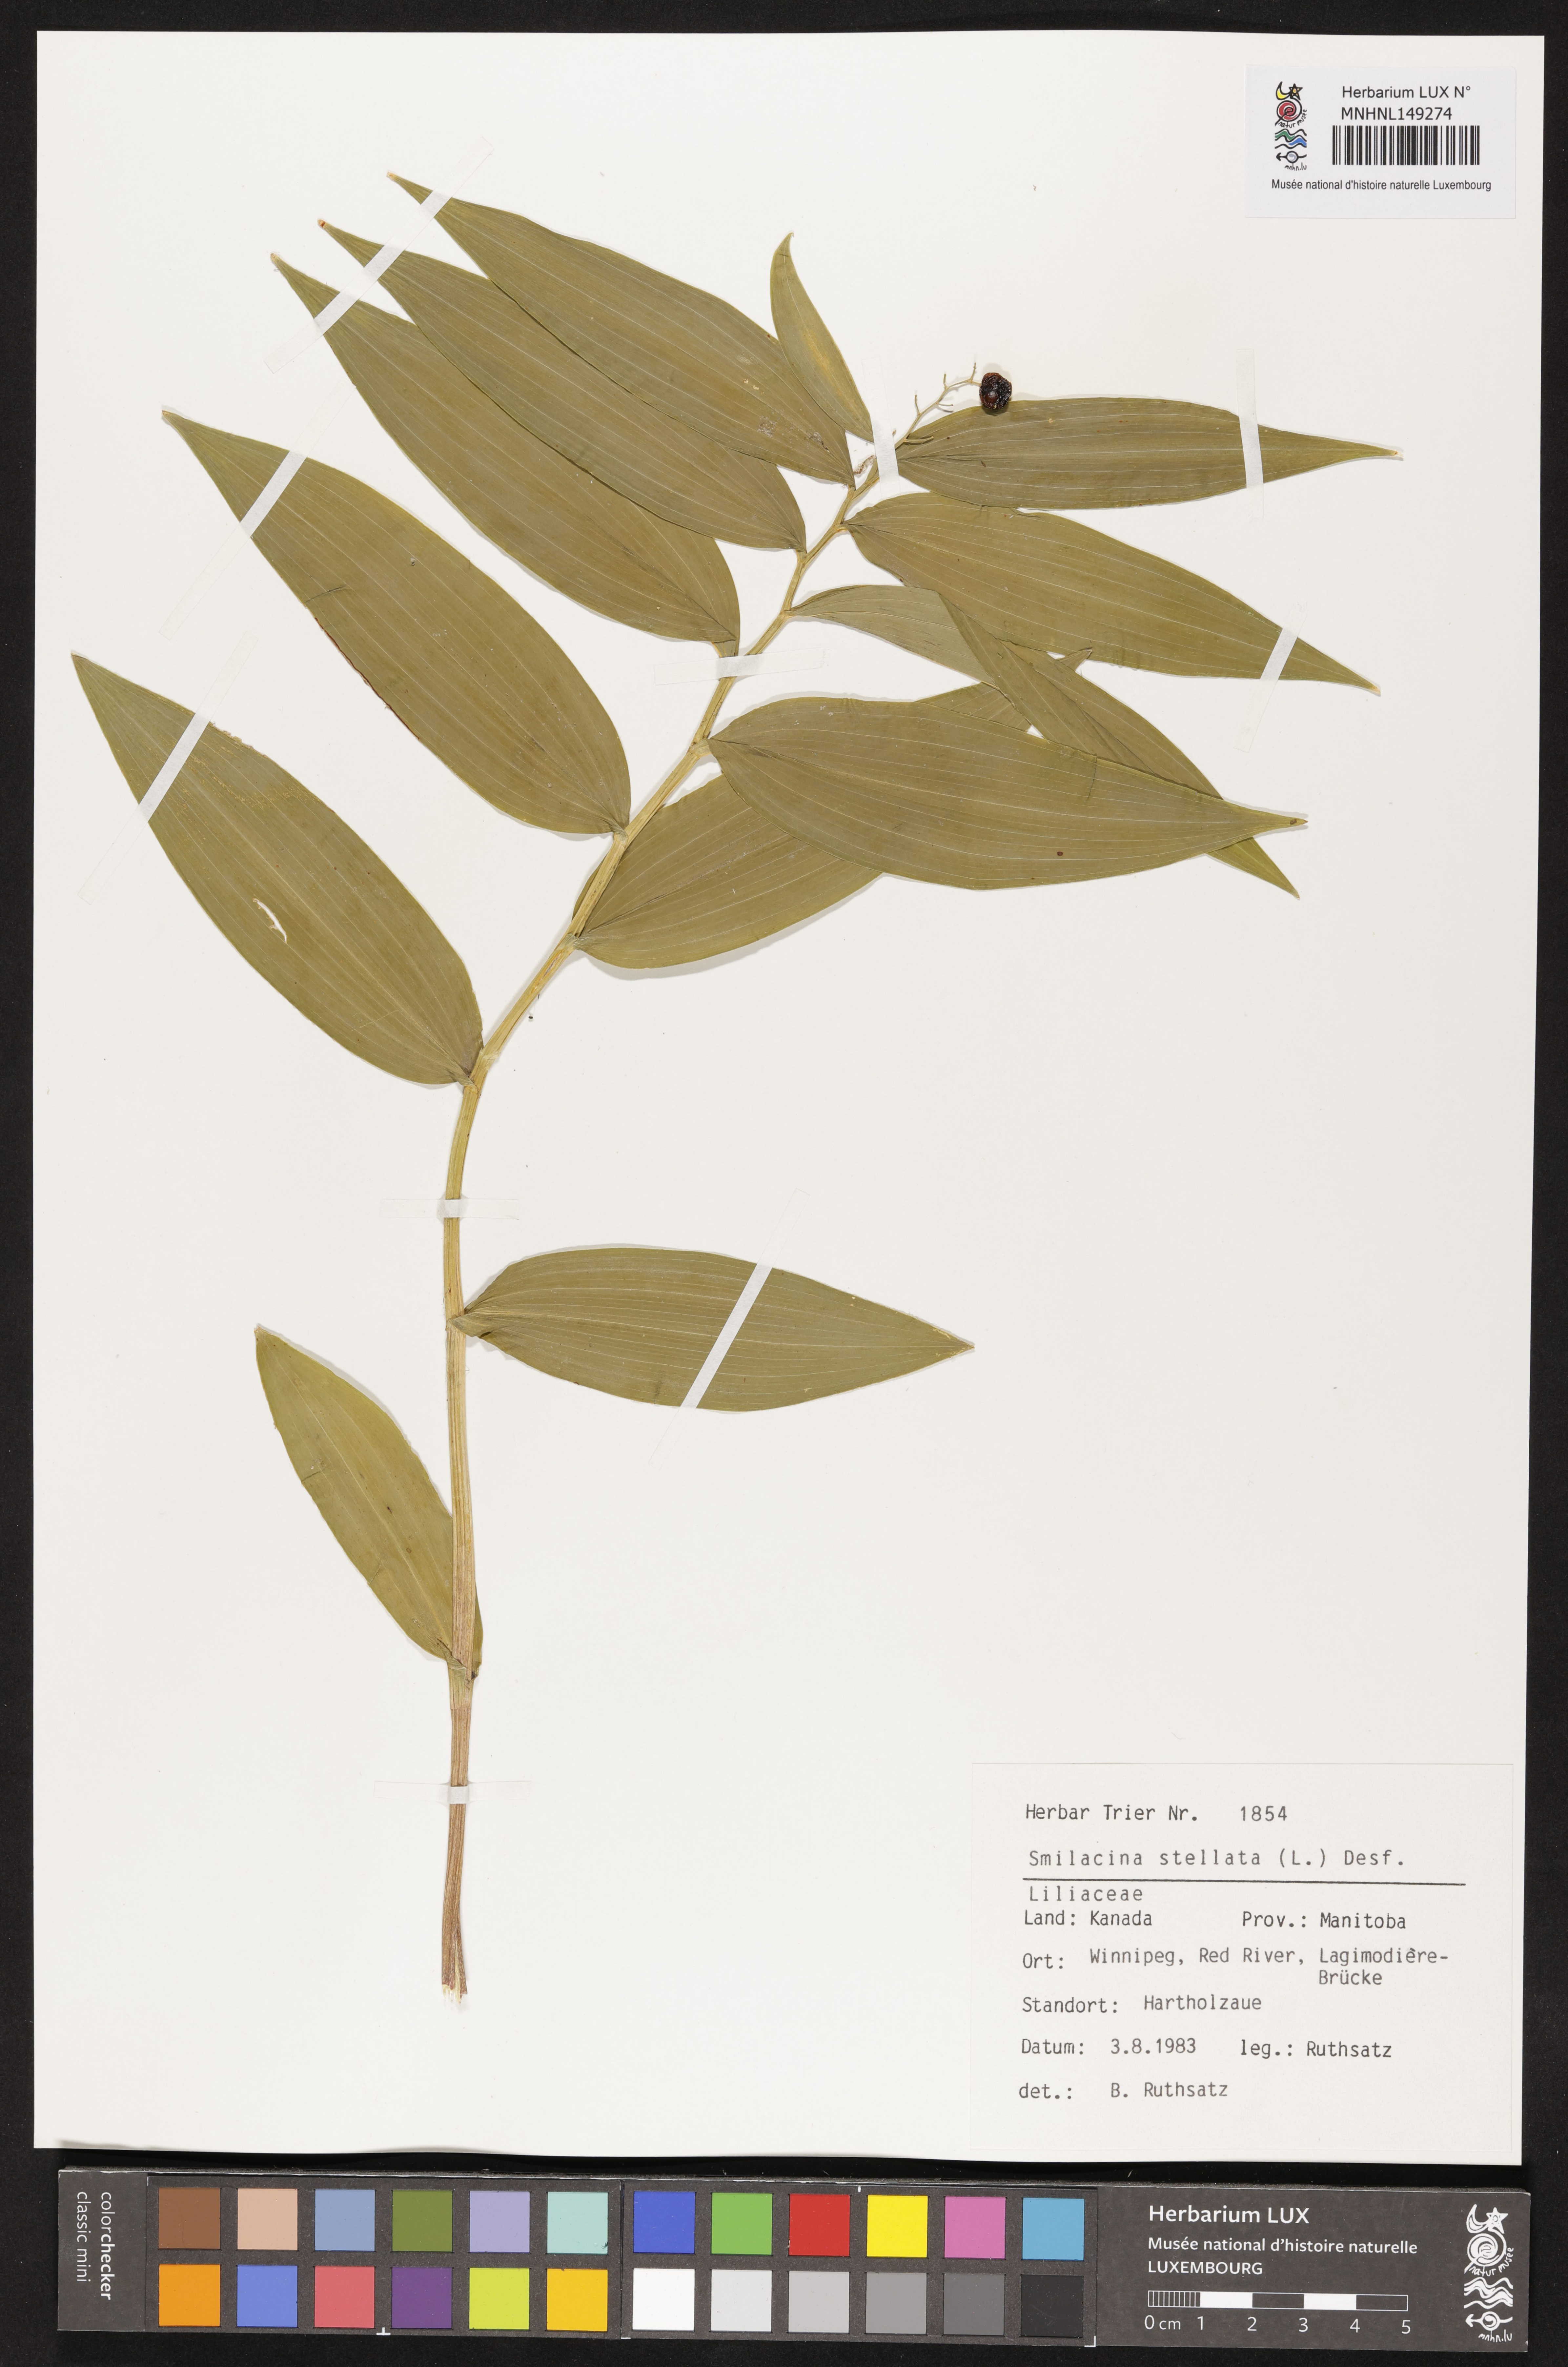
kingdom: Plantae
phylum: Tracheophyta
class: Liliopsida
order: Asparagales
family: Asparagaceae
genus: Maianthemum
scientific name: Maianthemum stellatum
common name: Little false solomon's seal
